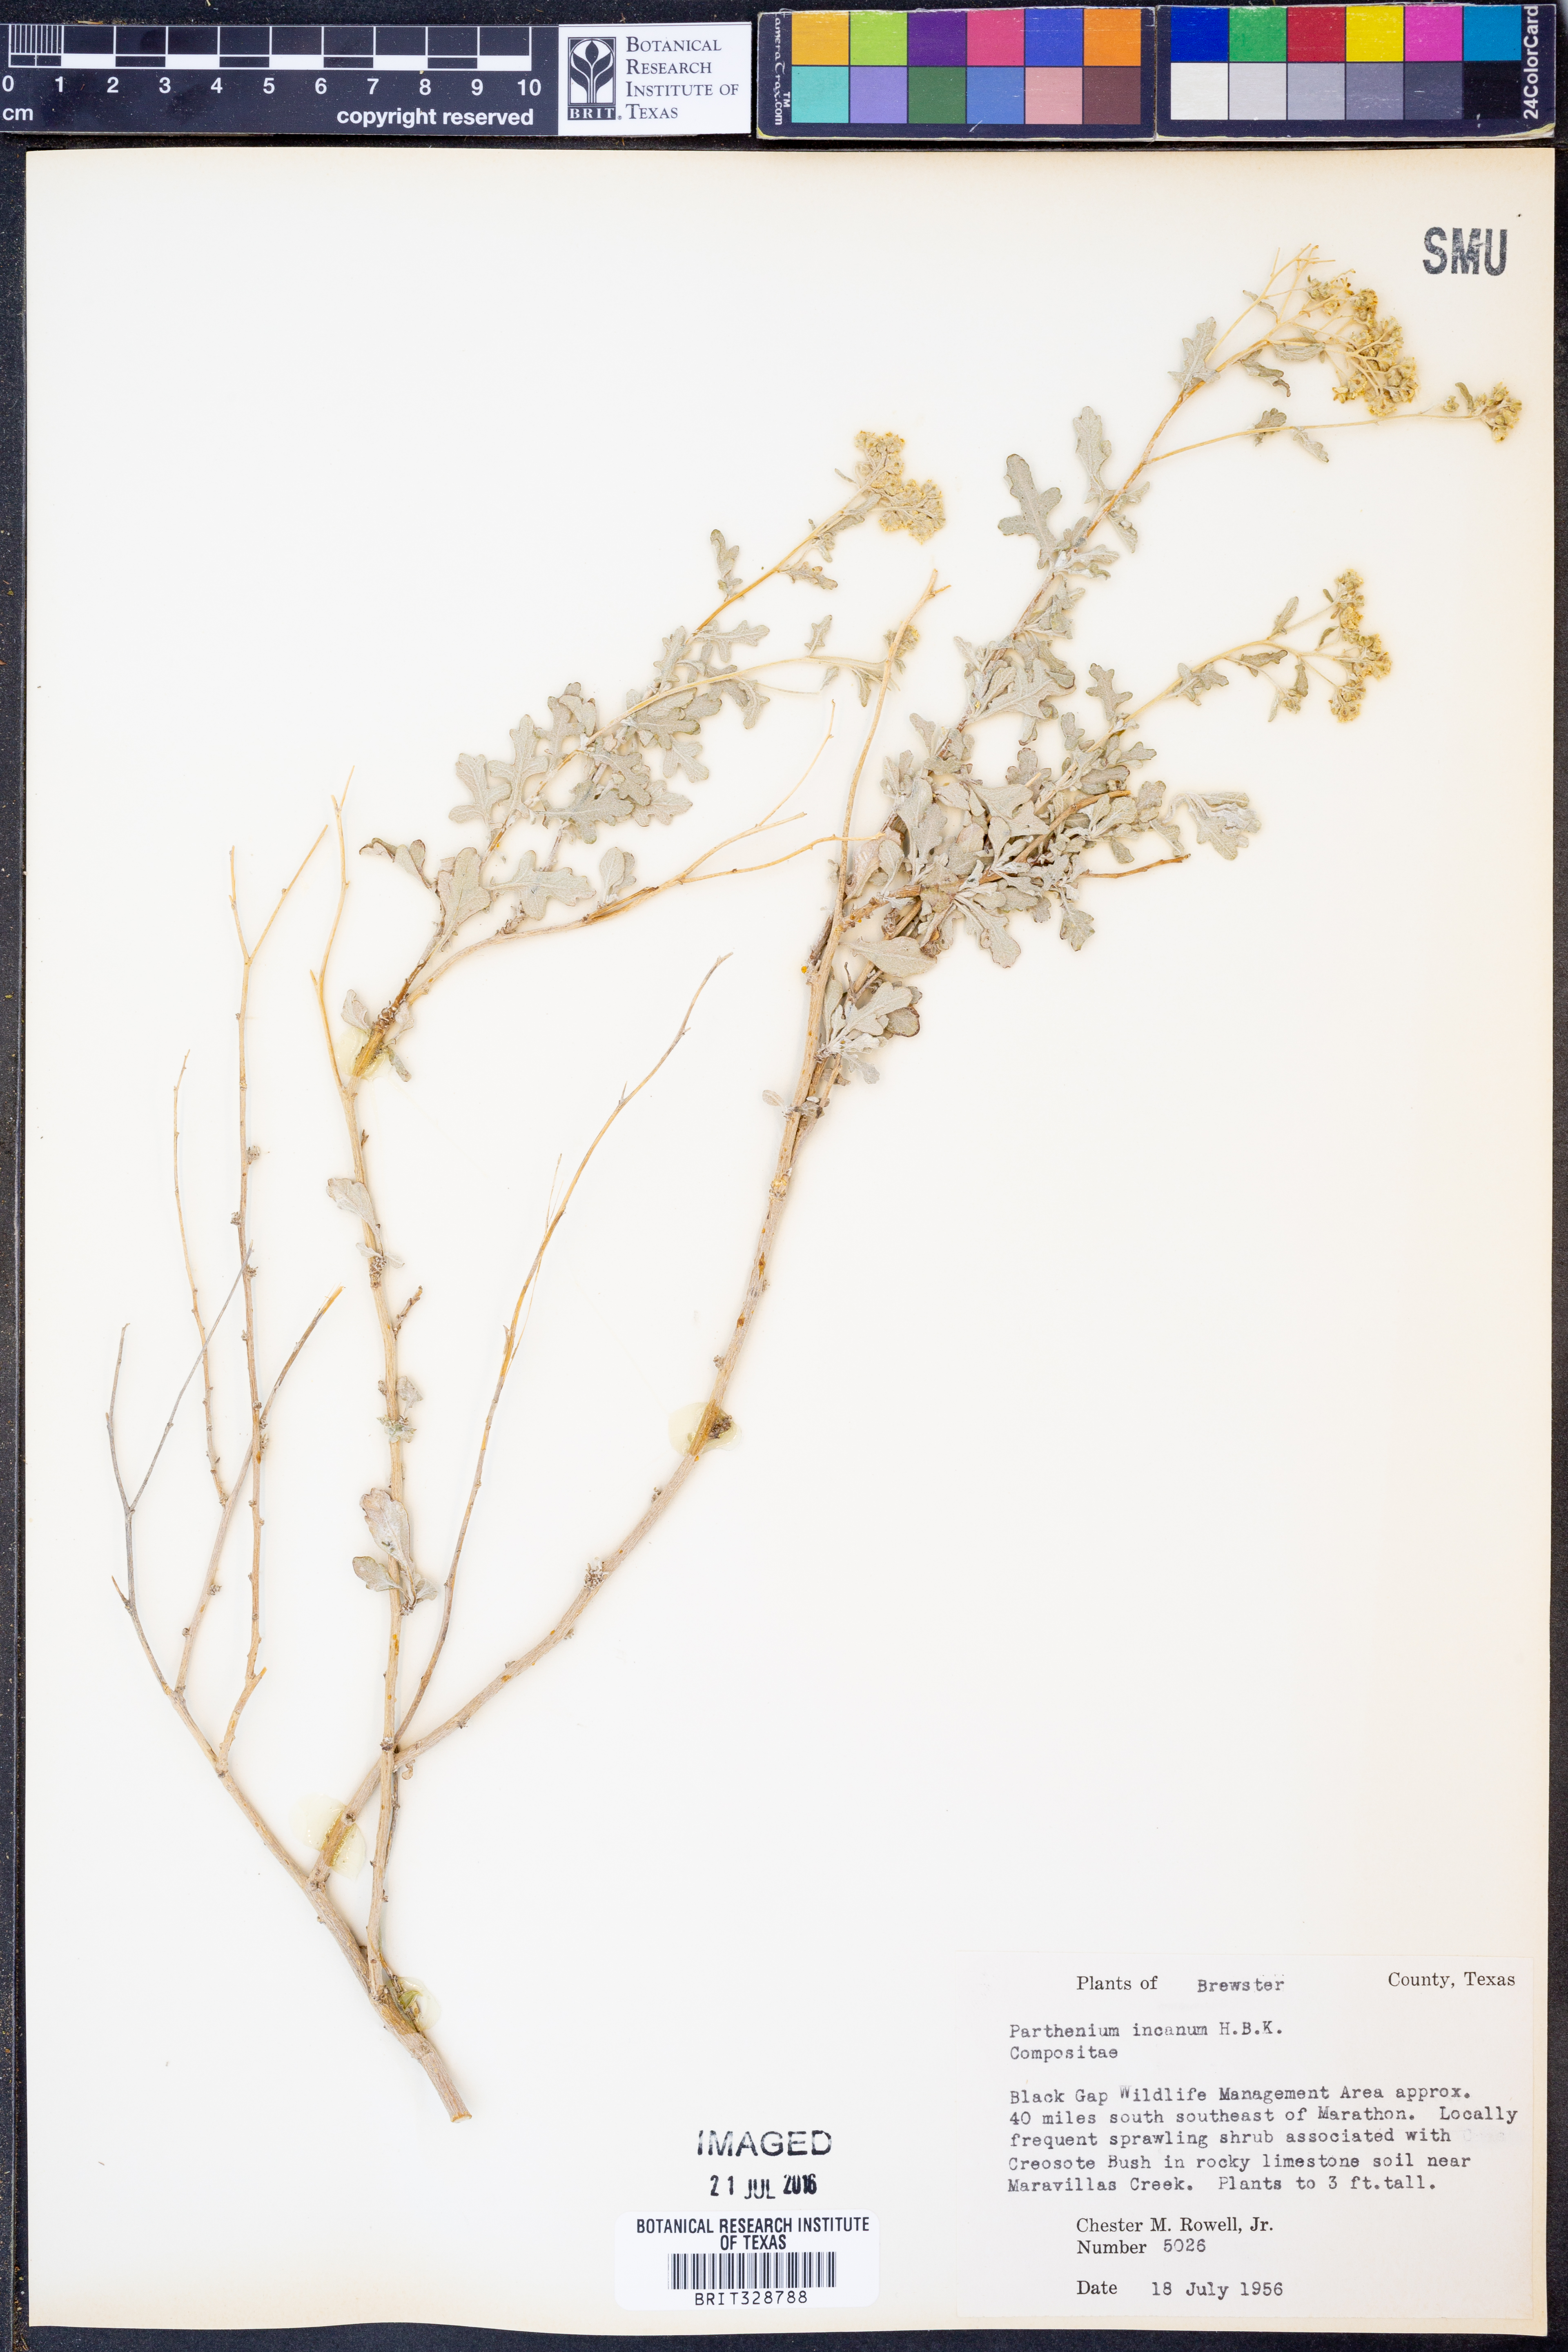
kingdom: Plantae
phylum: Tracheophyta
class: Magnoliopsida
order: Asterales
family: Asteraceae
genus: Parthenium
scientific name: Parthenium incanum
